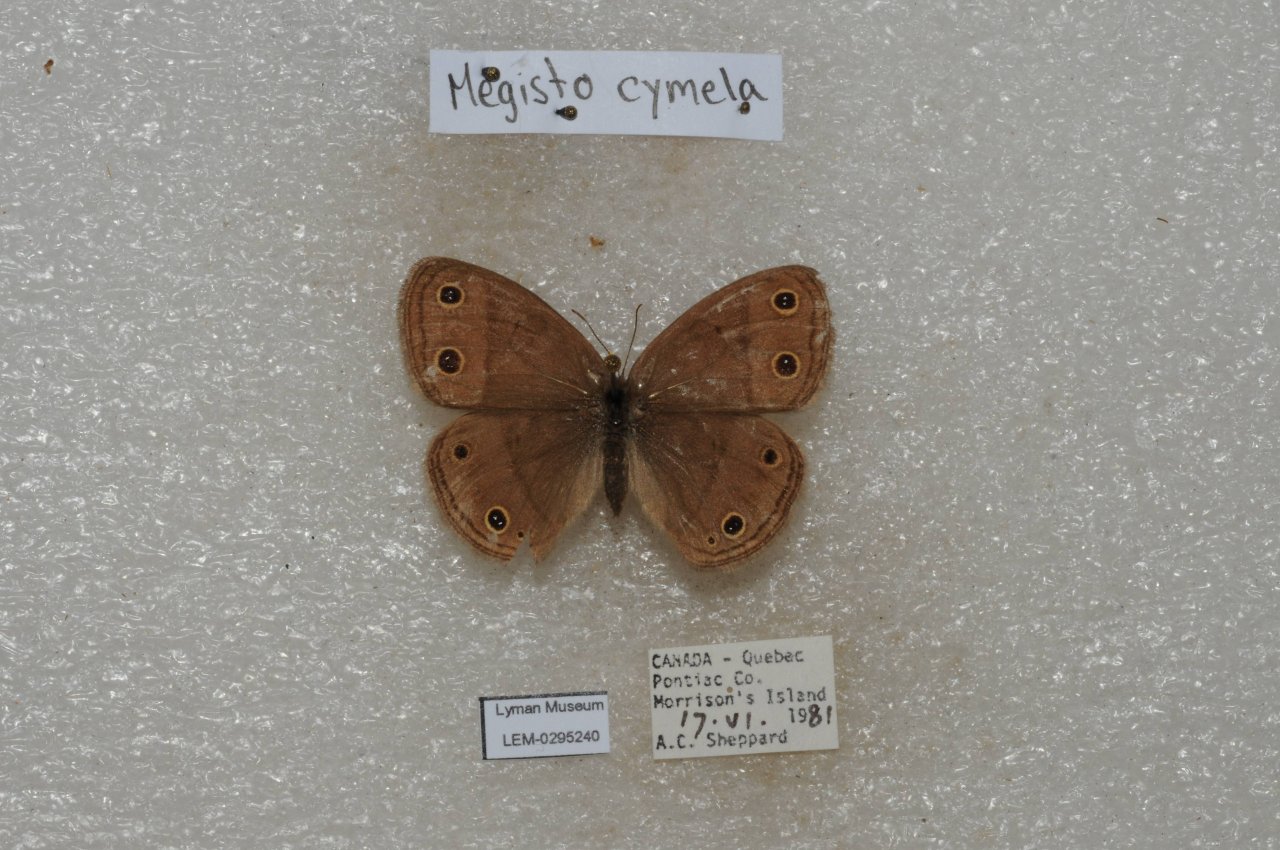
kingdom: Animalia
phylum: Arthropoda
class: Insecta
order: Lepidoptera
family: Nymphalidae
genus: Euptychia
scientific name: Euptychia cymela
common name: Little Wood Satyr
